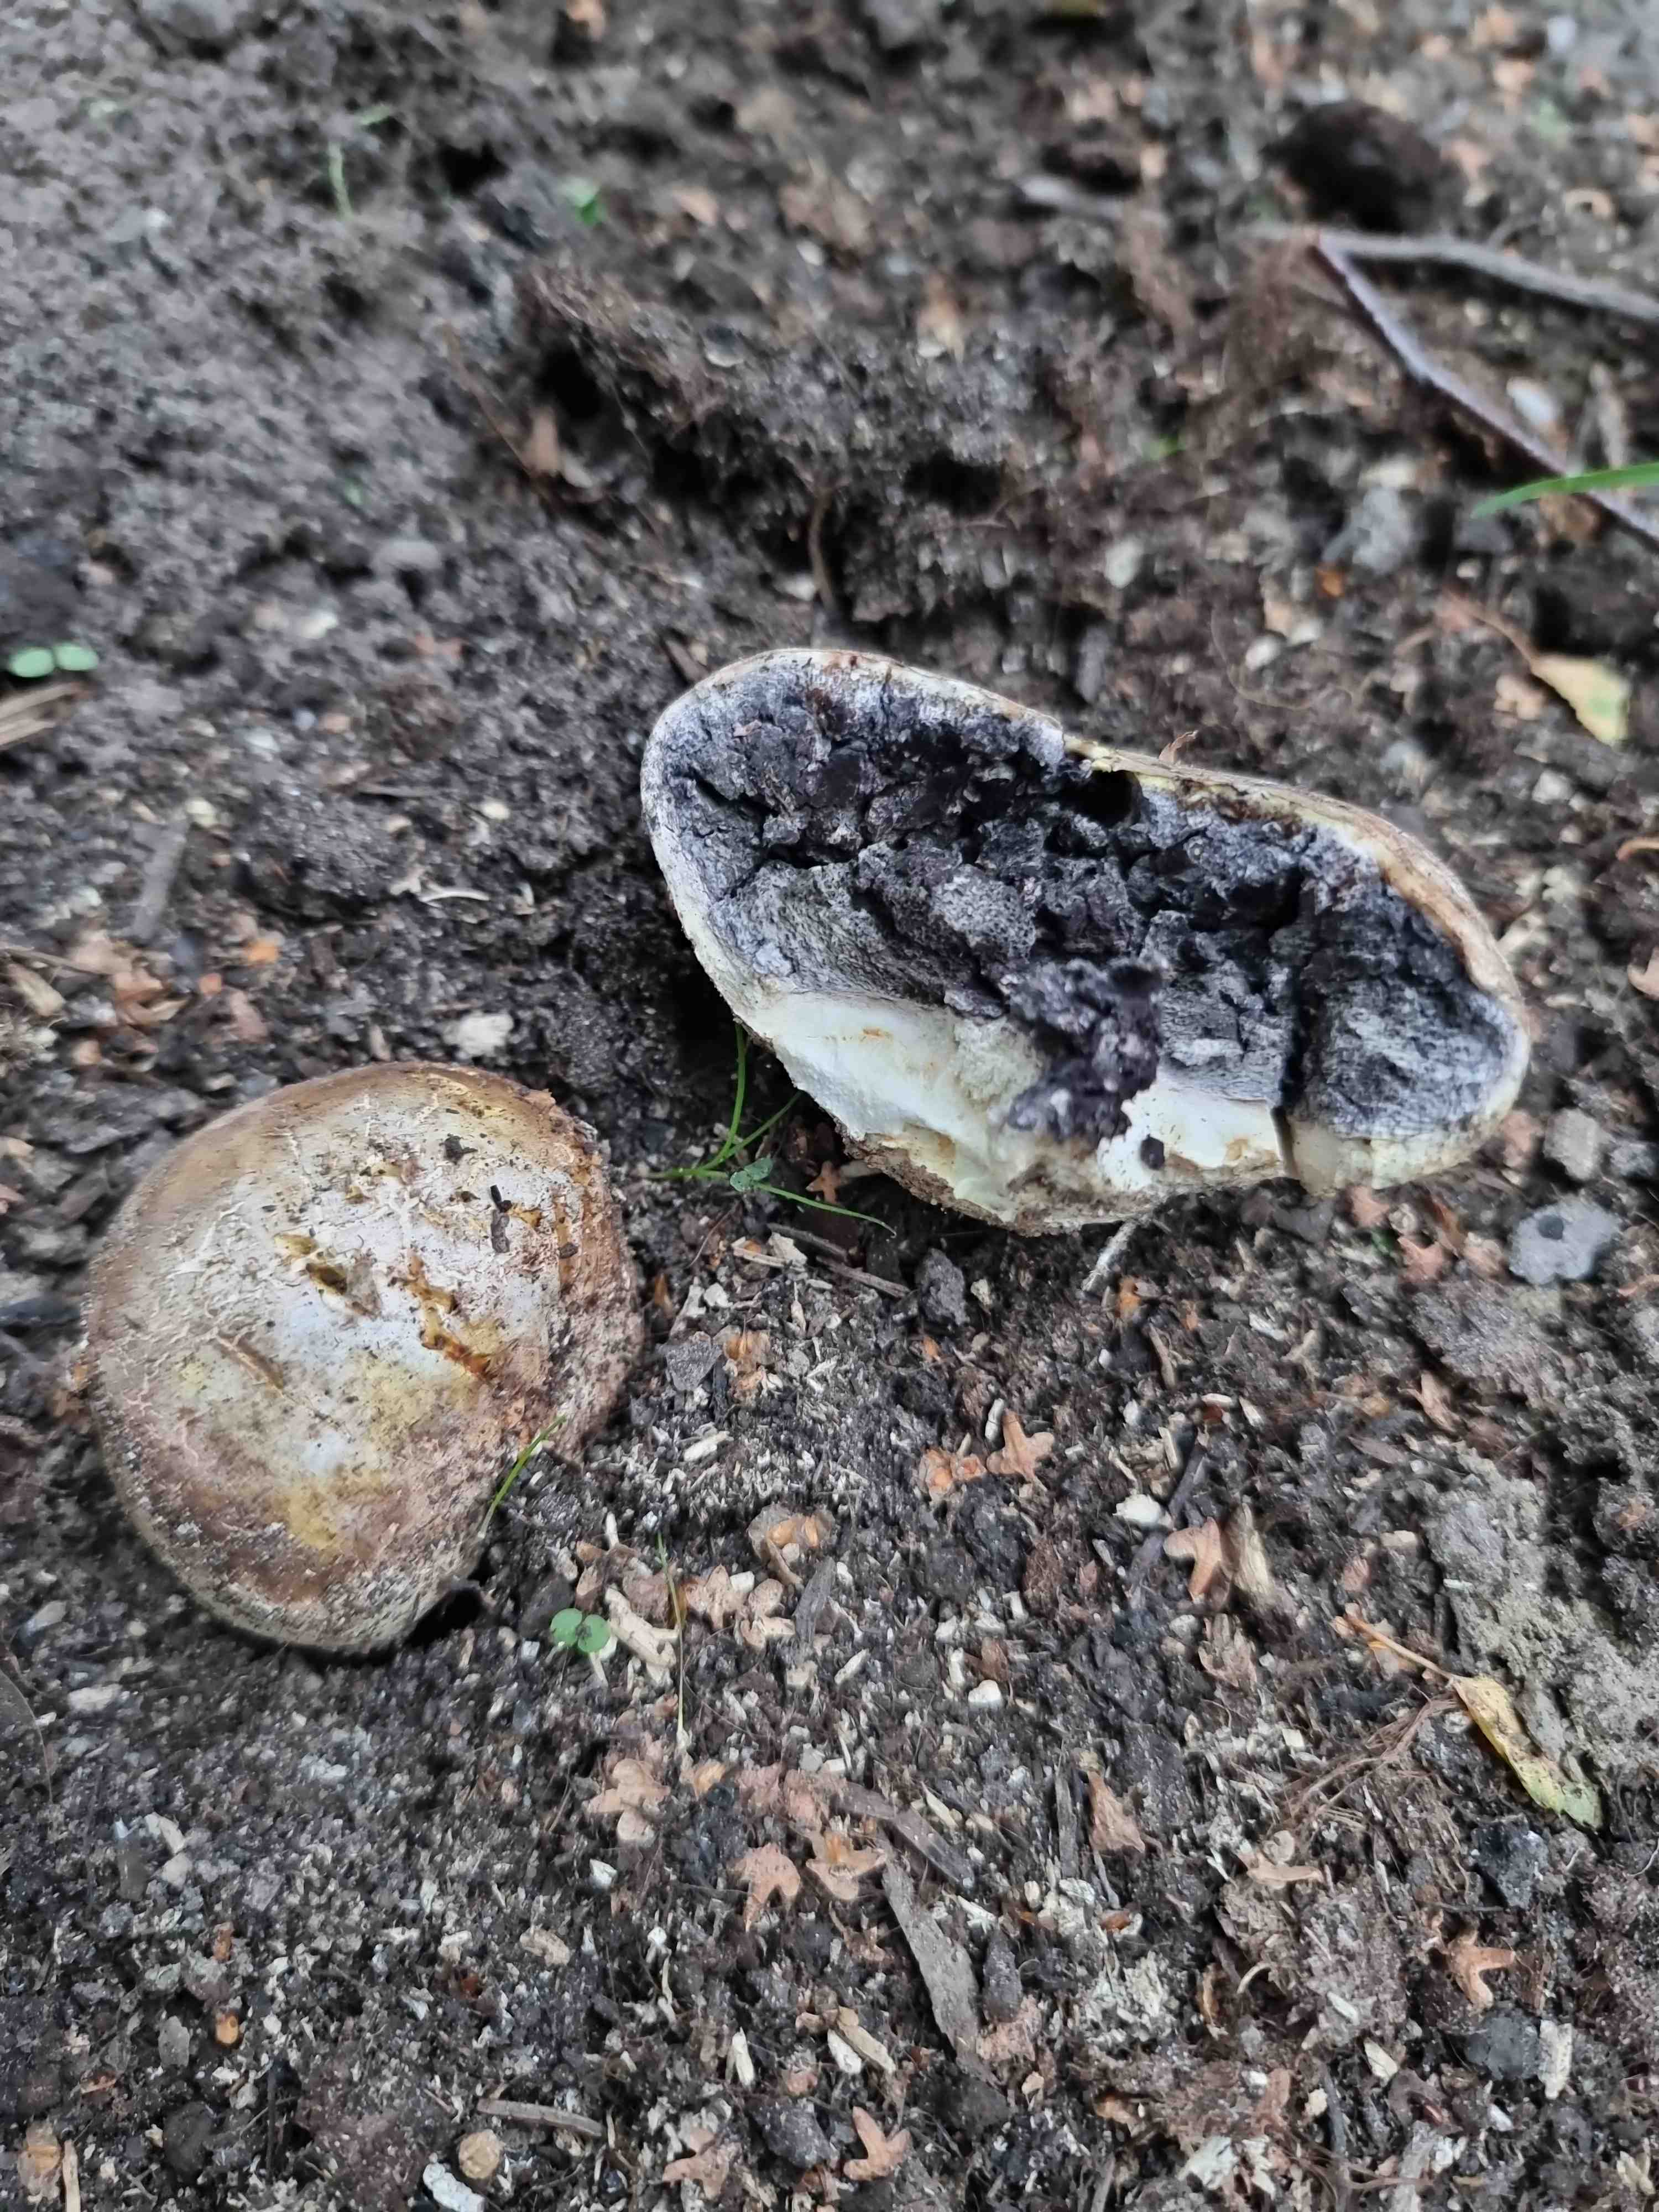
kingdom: Fungi
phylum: Basidiomycota
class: Agaricomycetes
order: Boletales
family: Sclerodermataceae
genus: Scleroderma
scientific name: Scleroderma bovista
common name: bovist-bruskbold
